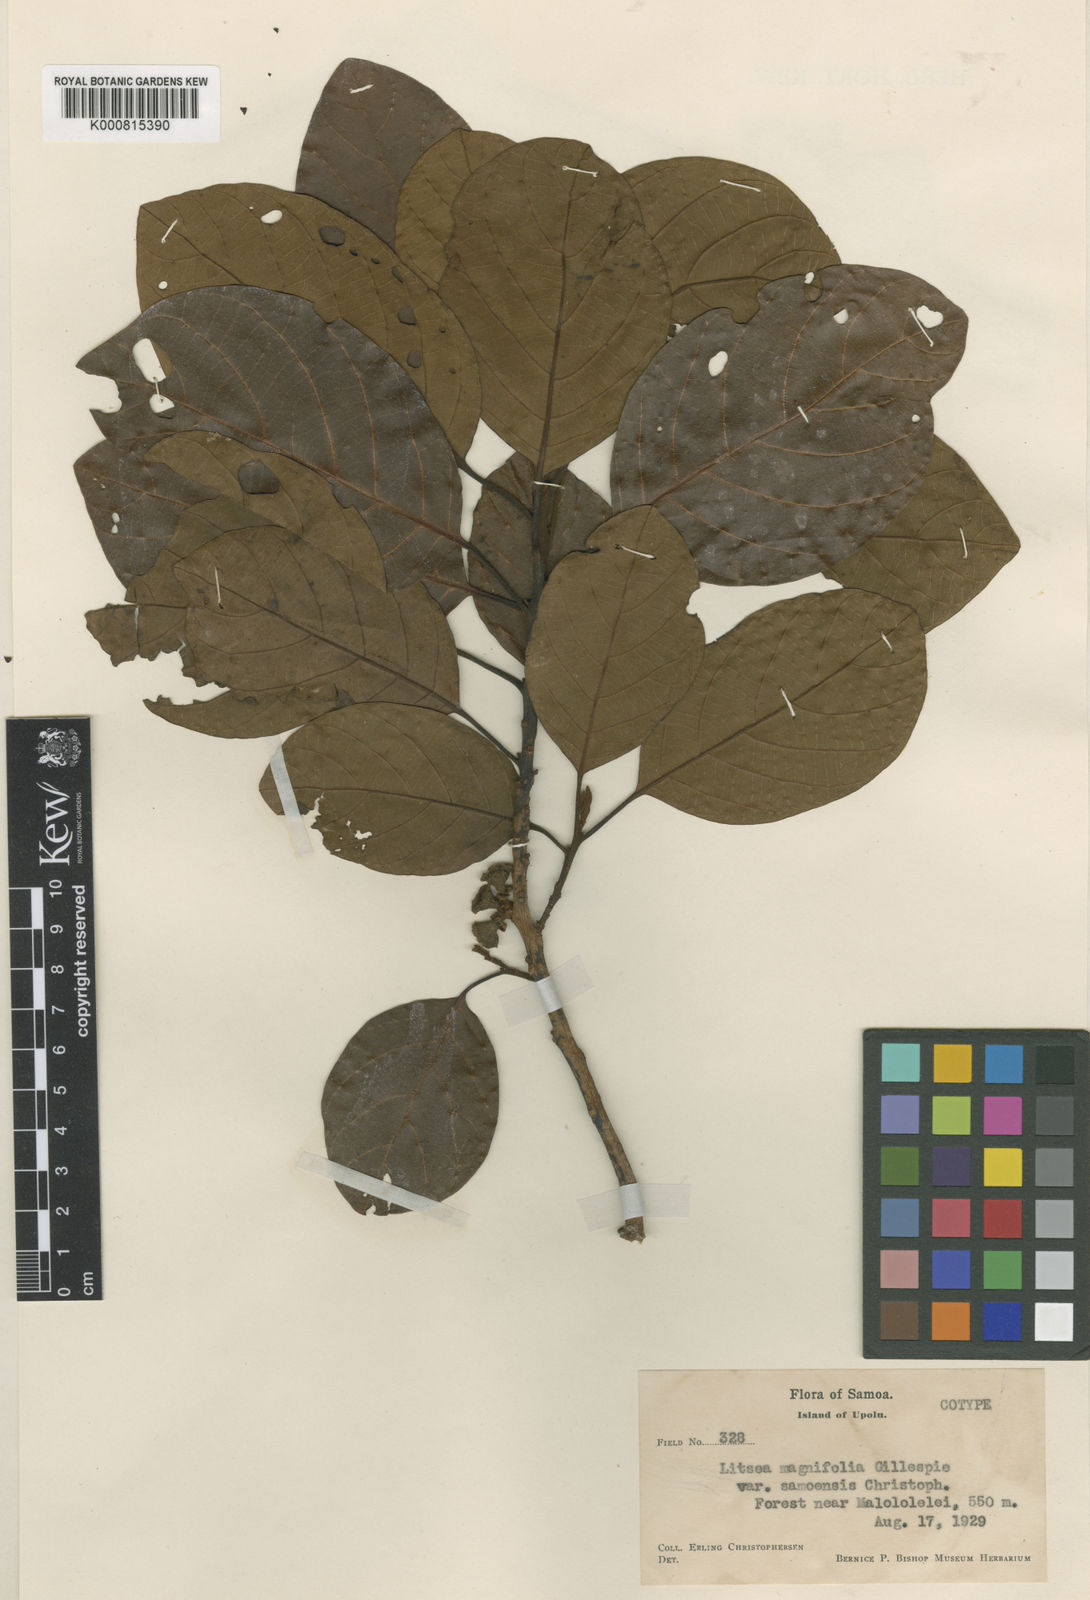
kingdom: Plantae
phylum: Tracheophyta
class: Magnoliopsida
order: Laurales
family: Lauraceae
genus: Litsea
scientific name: Litsea magnifolia
